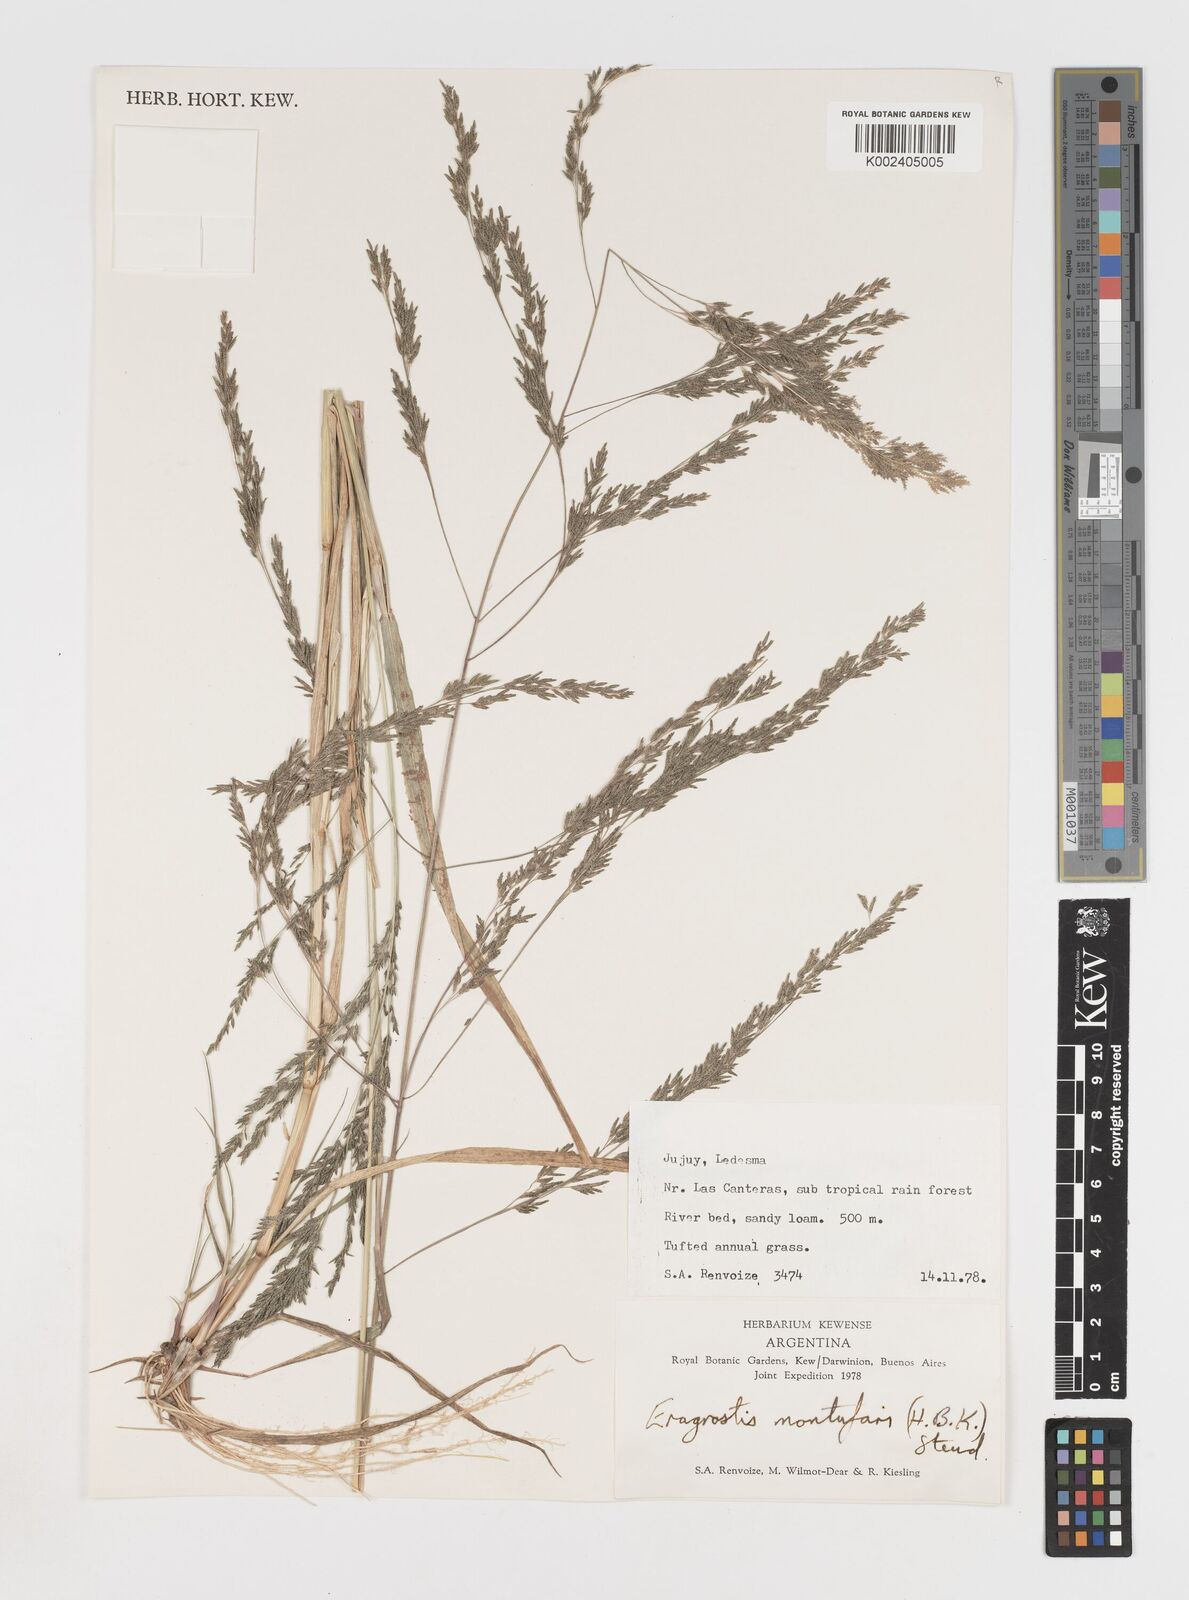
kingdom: Plantae
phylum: Tracheophyta
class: Liliopsida
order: Poales
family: Poaceae
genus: Eragrostis
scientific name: Eragrostis pastoensis
